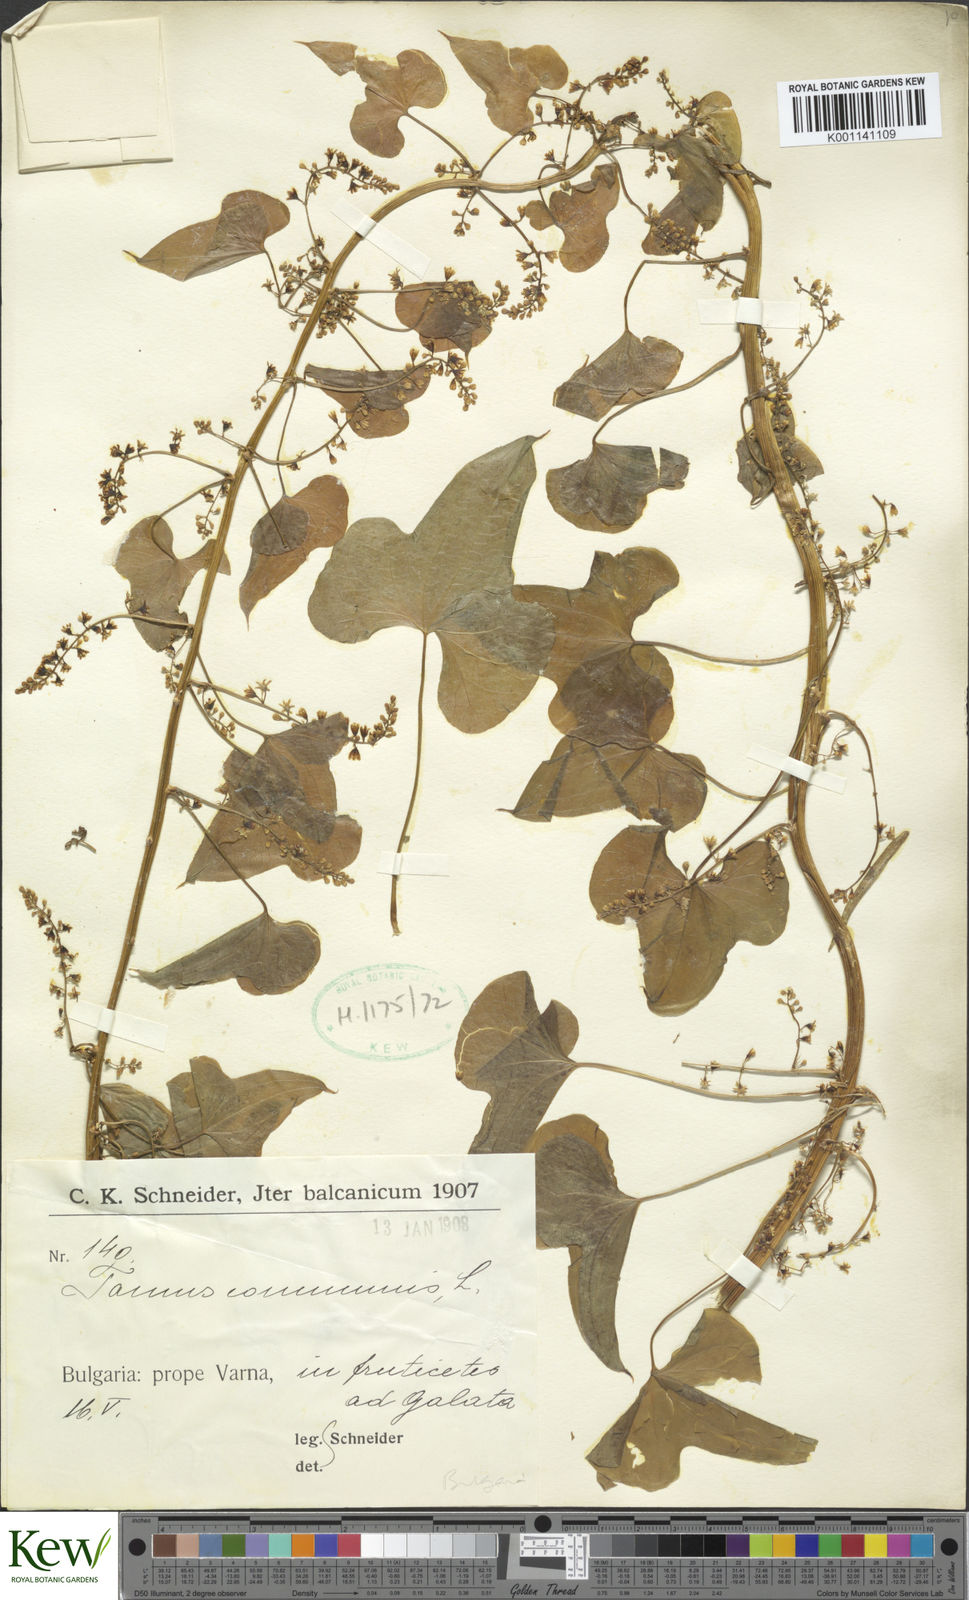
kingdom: Plantae
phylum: Tracheophyta
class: Liliopsida
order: Dioscoreales
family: Dioscoreaceae
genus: Dioscorea
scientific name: Dioscorea communis
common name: Black-bindweed
